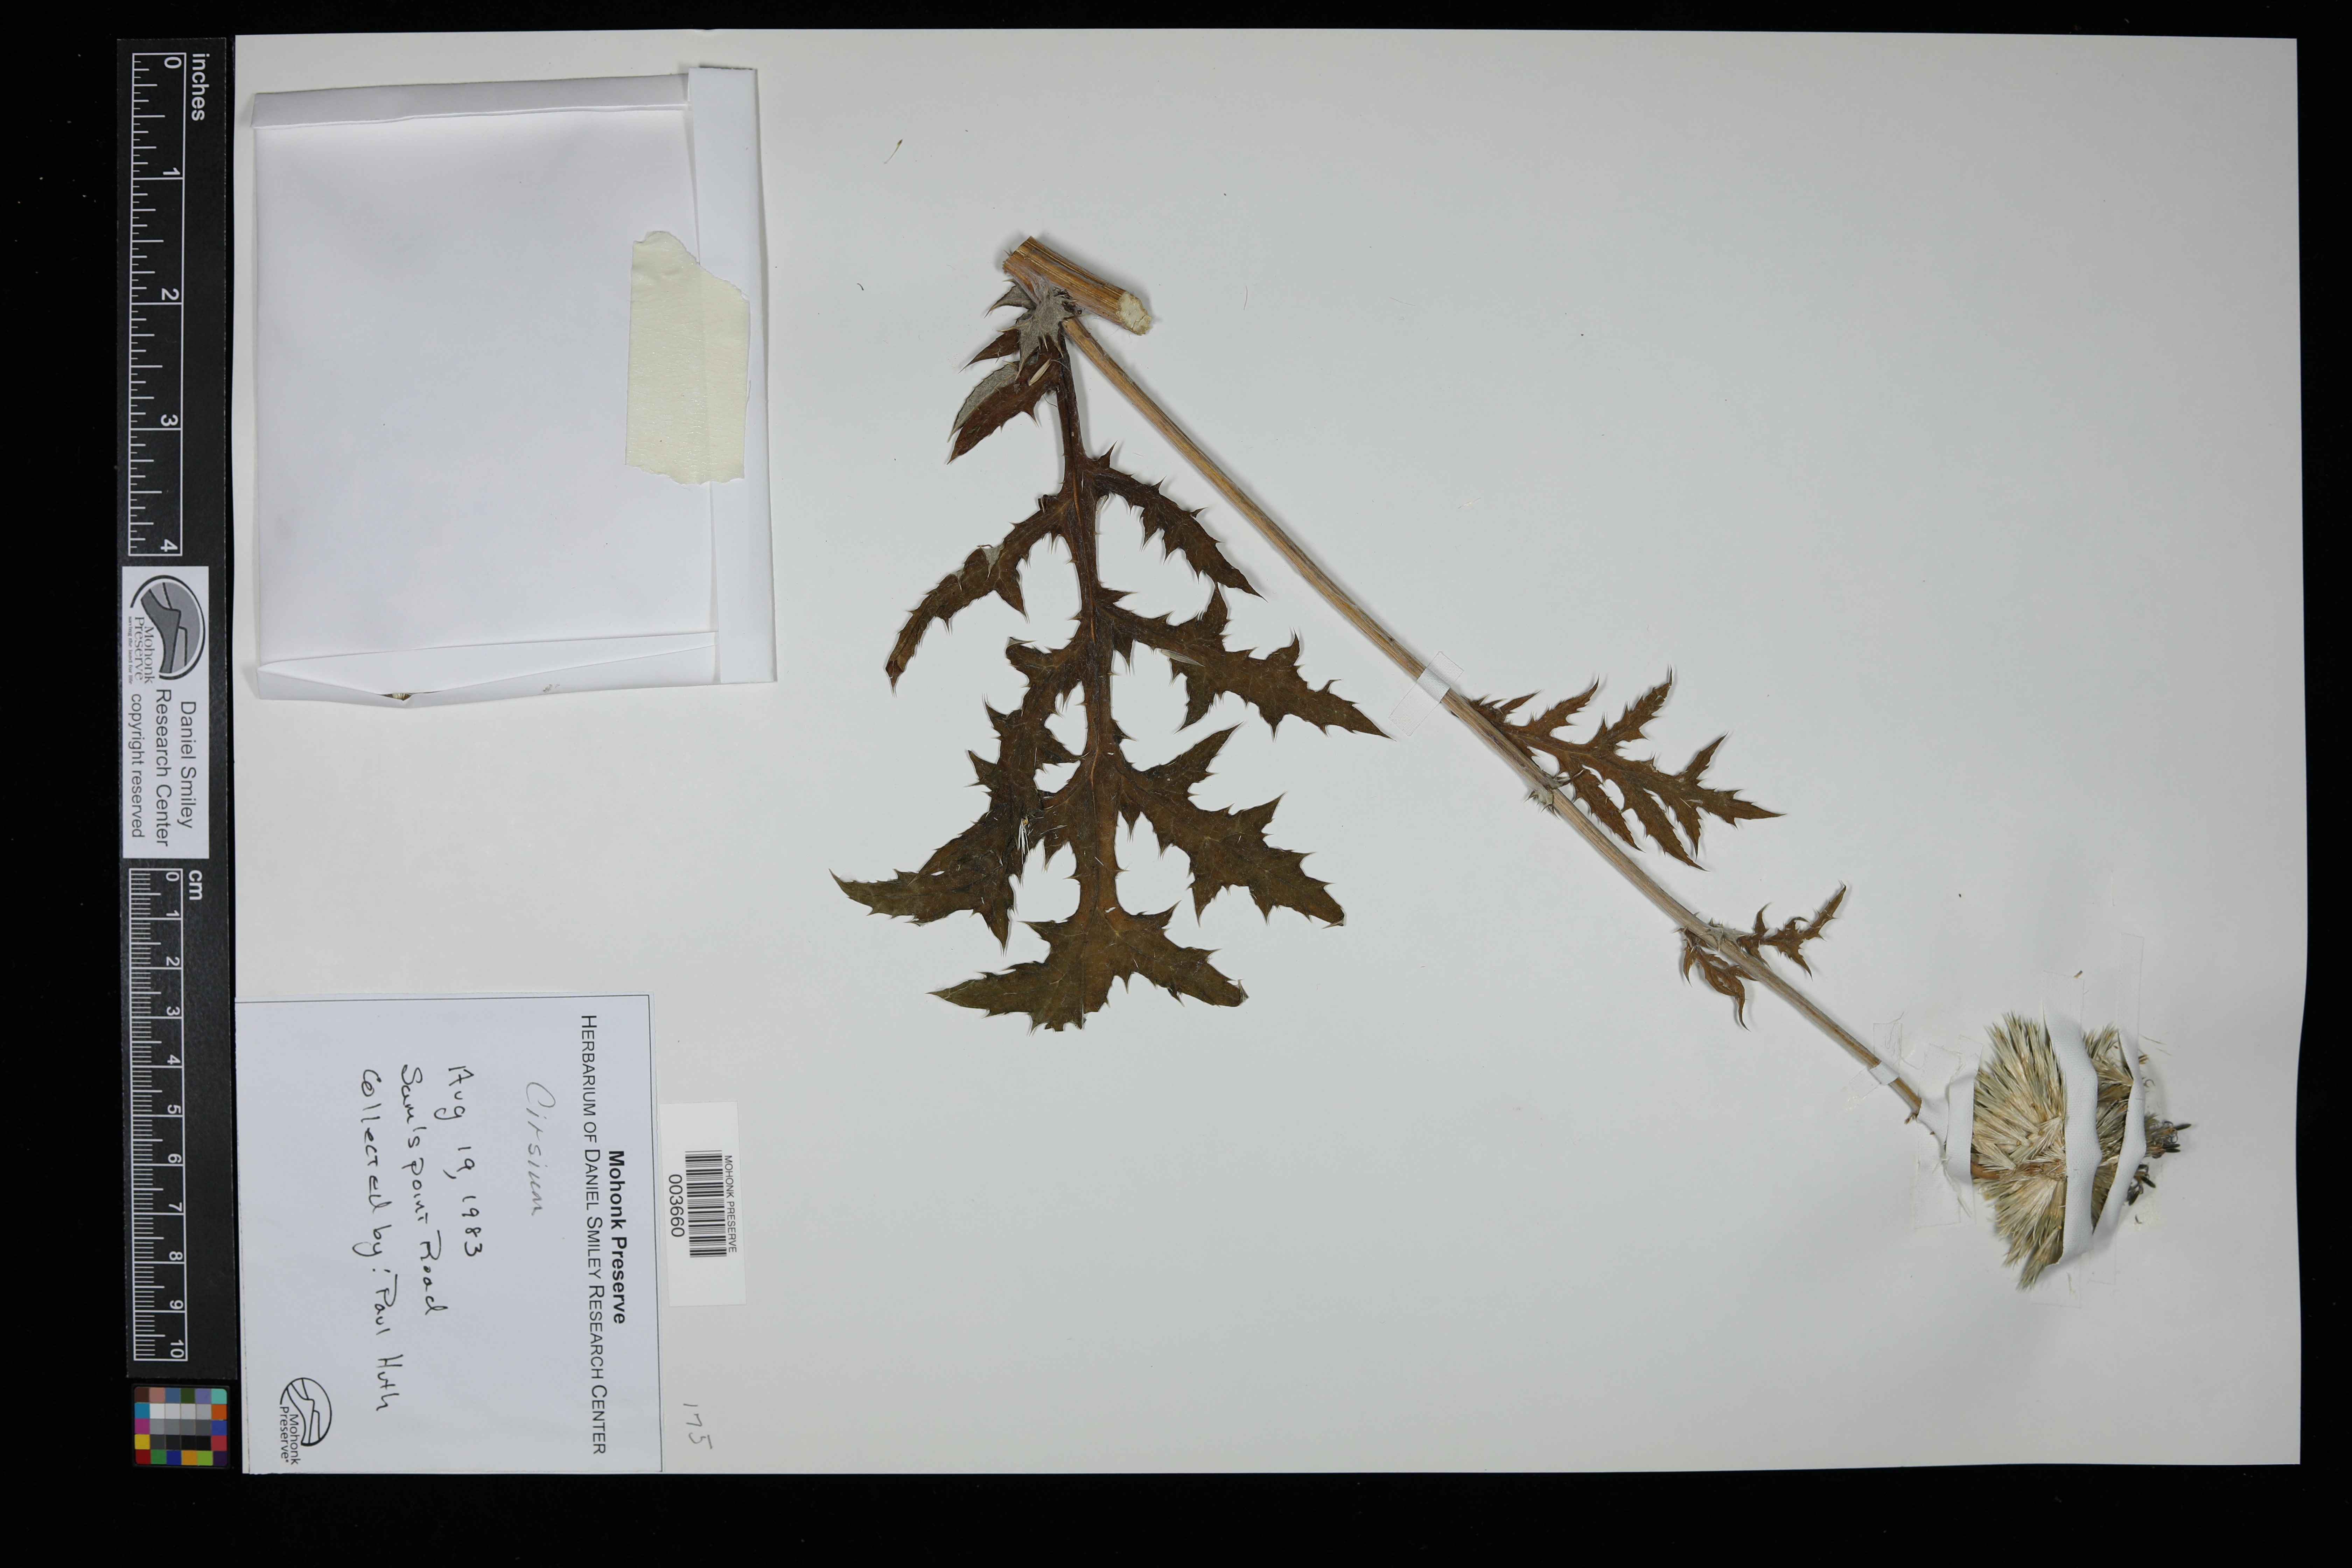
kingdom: Plantae
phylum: Tracheophyta
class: Magnoliopsida
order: Asterales
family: Asteraceae
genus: Cirsium
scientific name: Cirsium
